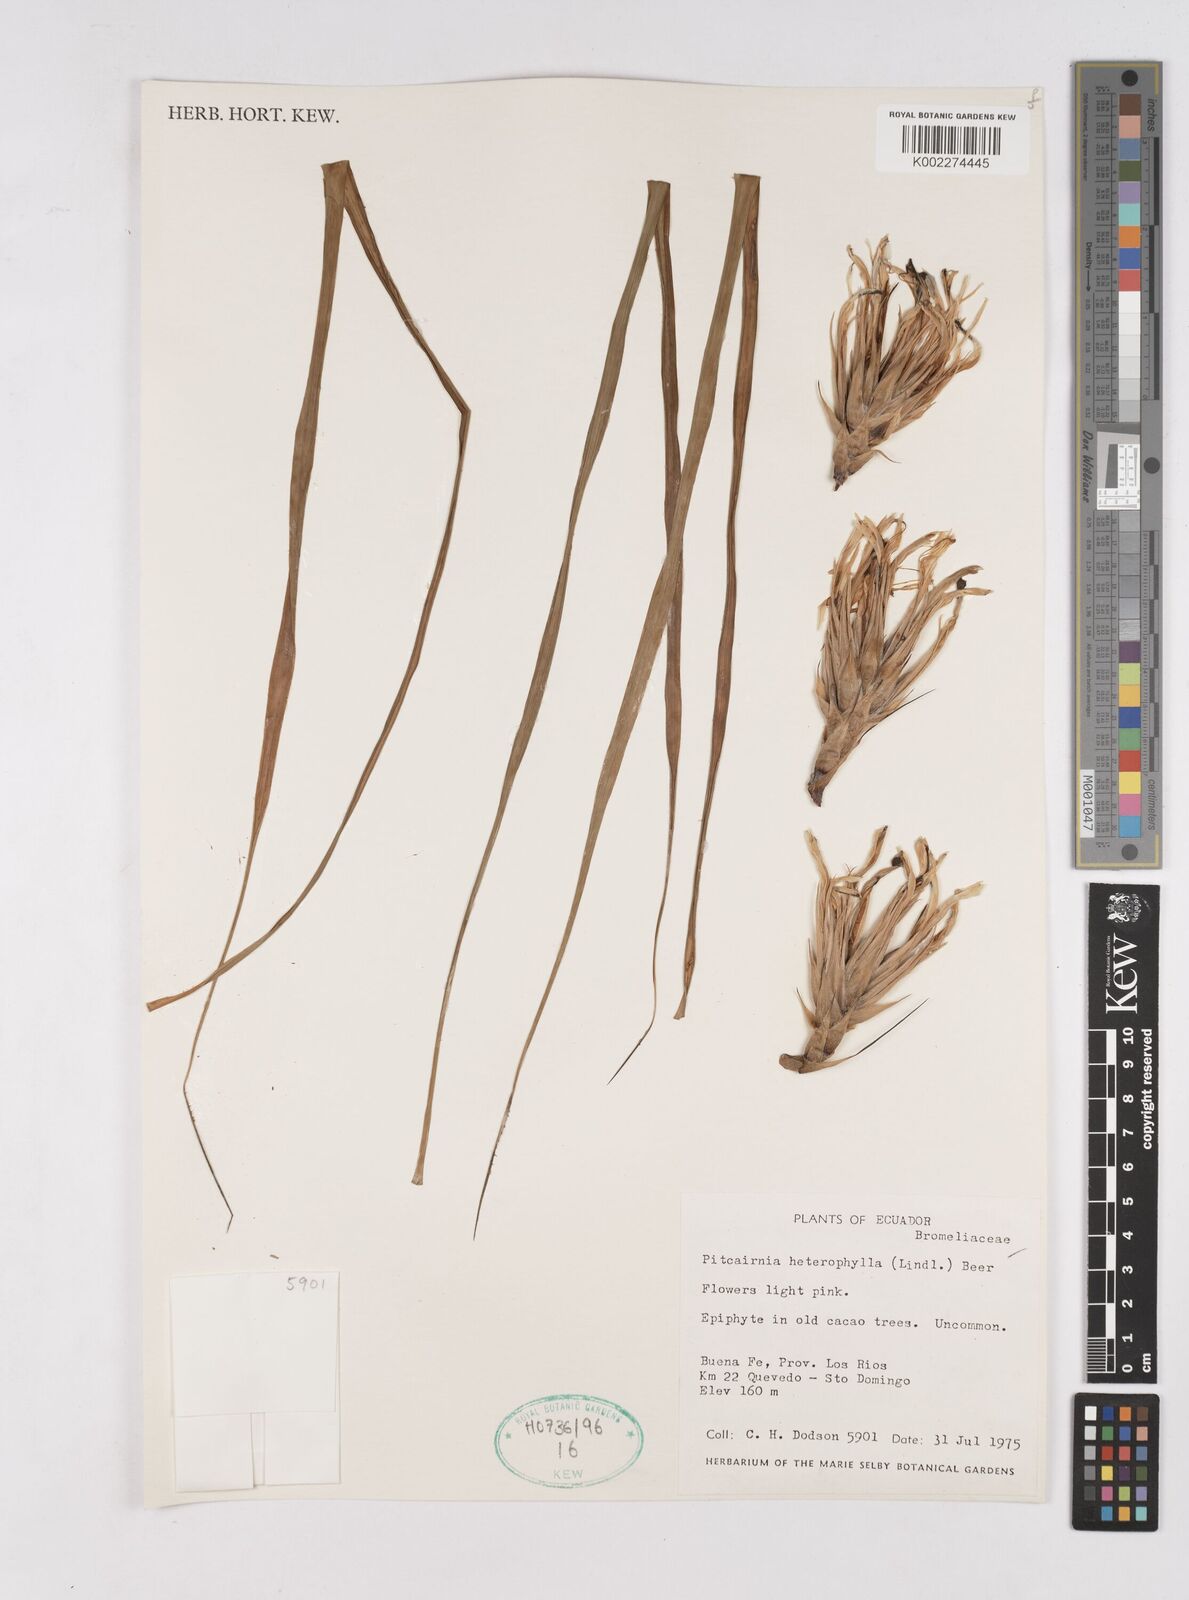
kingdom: Plantae
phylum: Tracheophyta
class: Liliopsida
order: Poales
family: Bromeliaceae
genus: Pitcairnia
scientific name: Pitcairnia heterophylla
